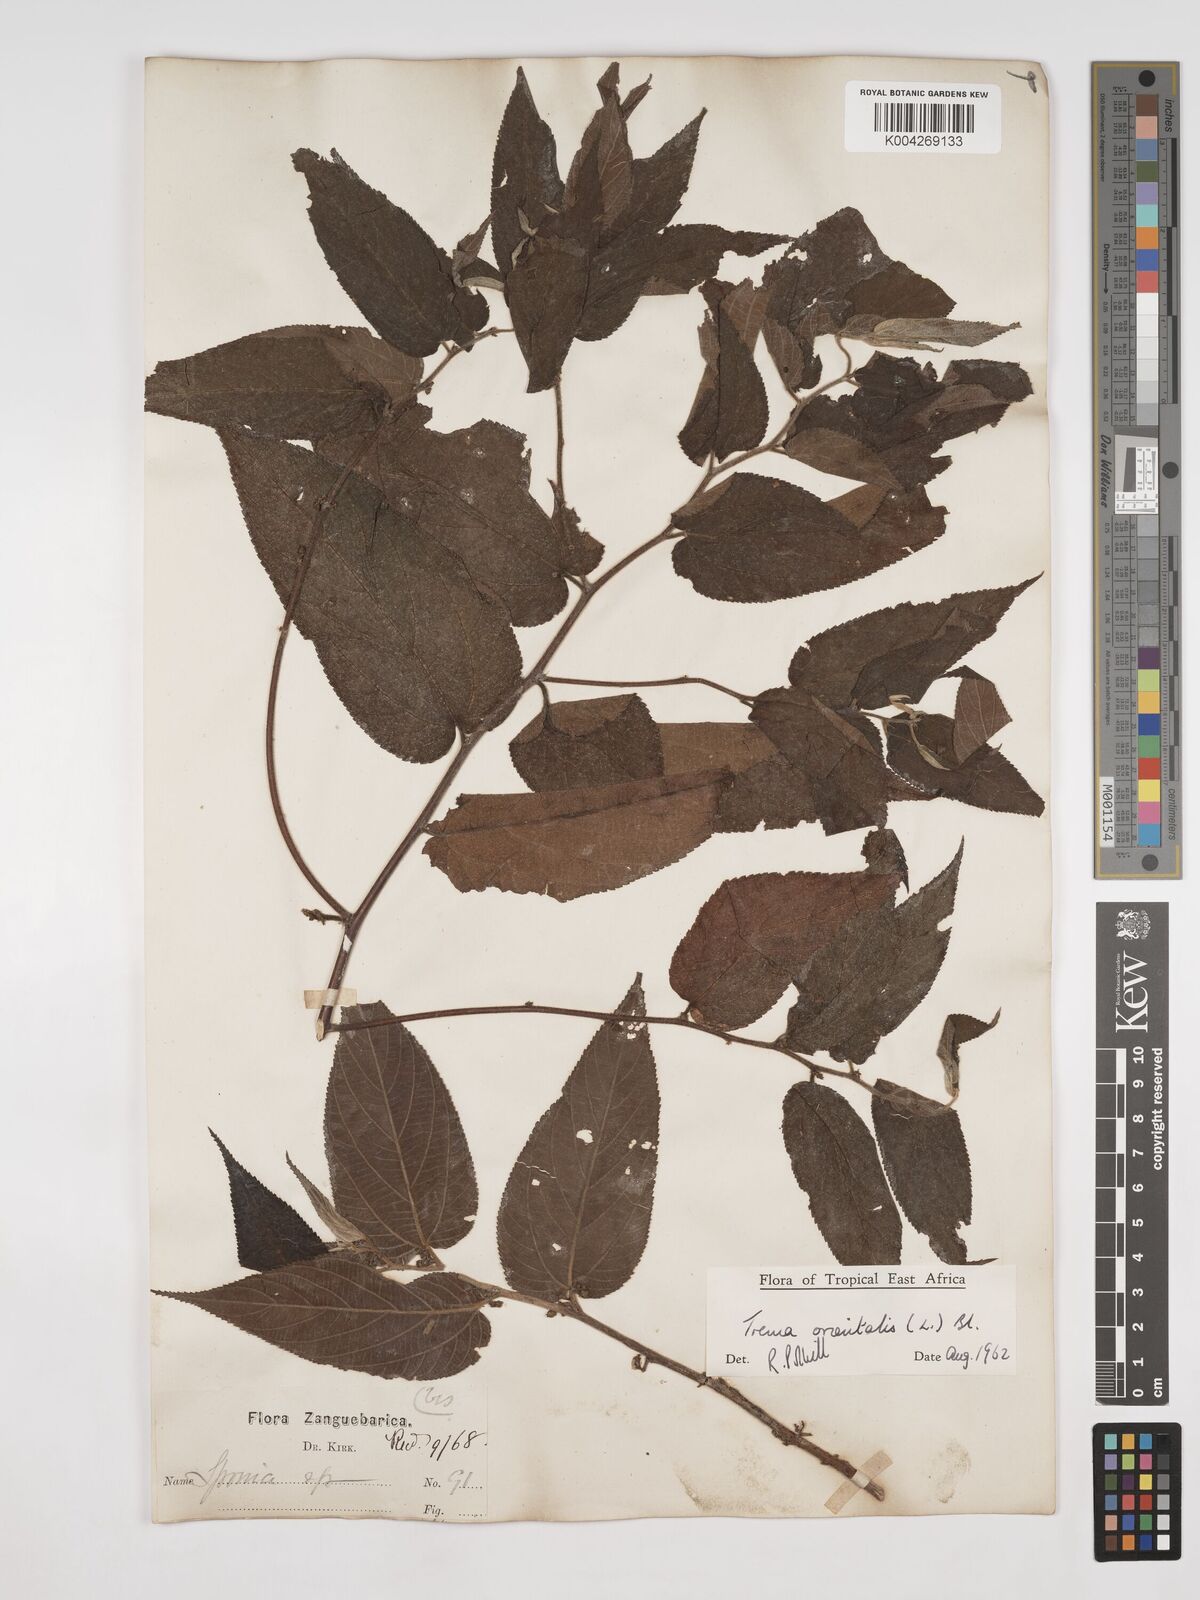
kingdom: Plantae
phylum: Tracheophyta
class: Magnoliopsida
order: Rosales
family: Cannabaceae
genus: Trema
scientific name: Trema orientale
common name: Indian charcoal tree
